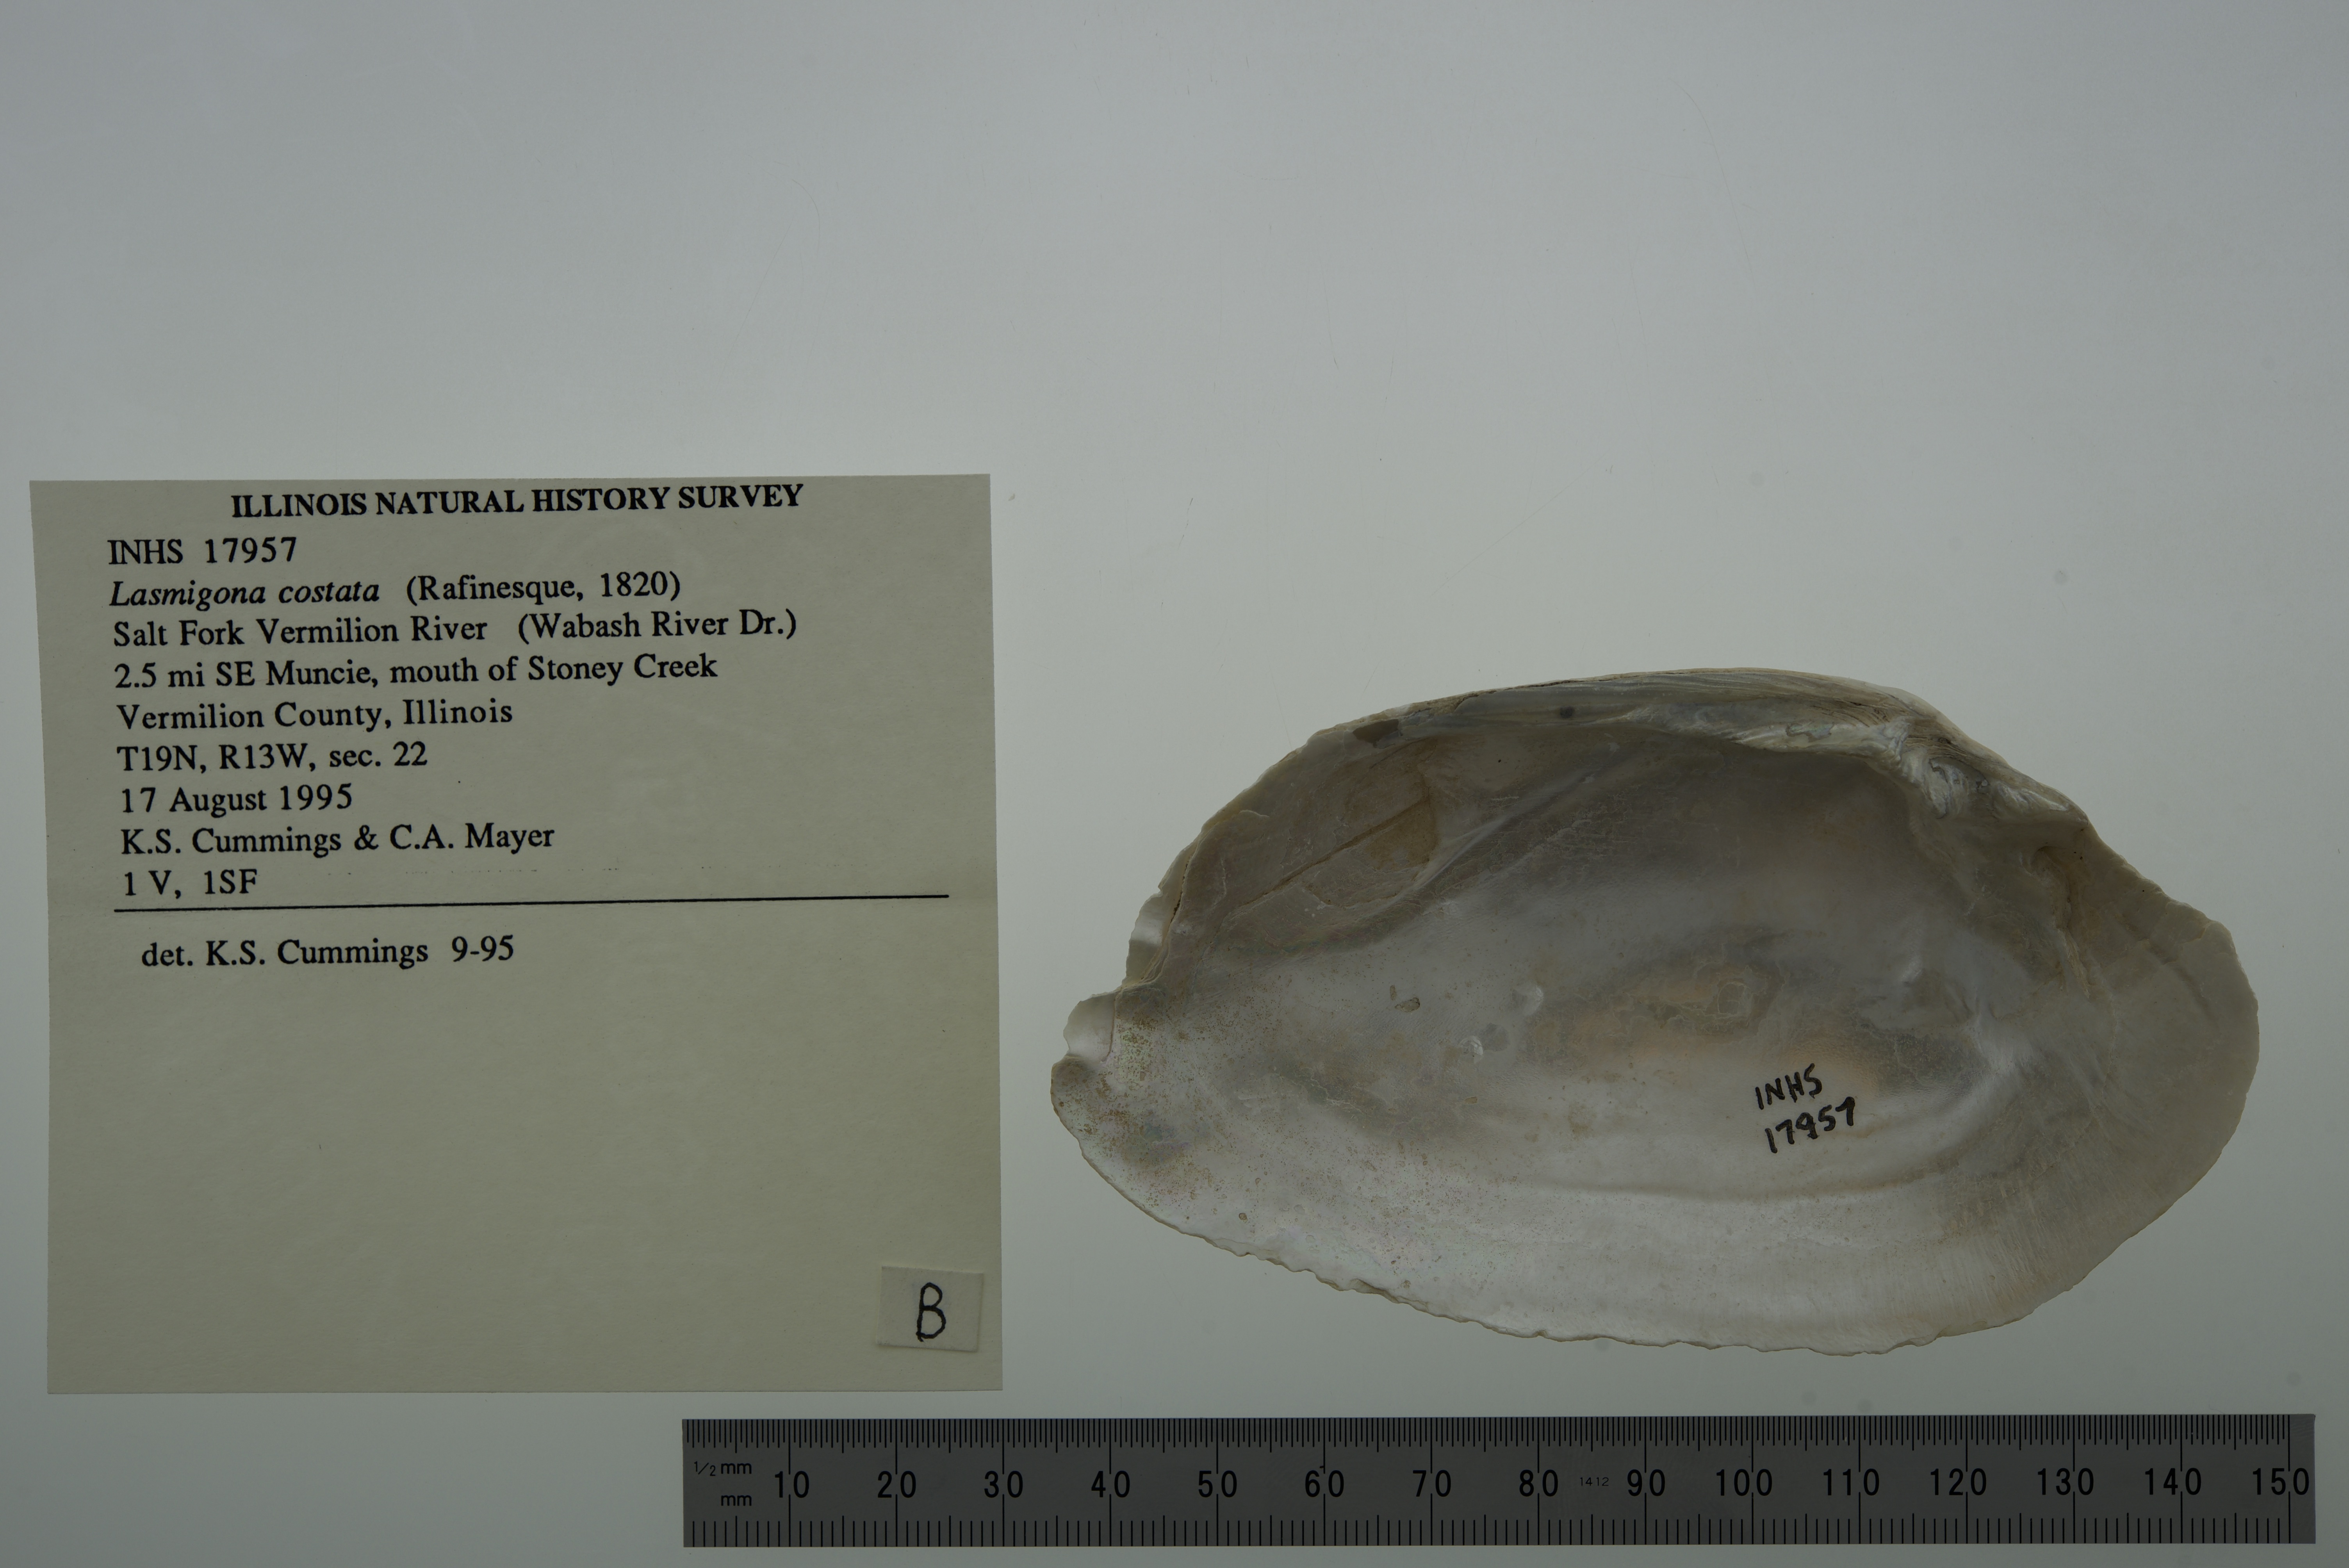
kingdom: Animalia
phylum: Mollusca
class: Bivalvia
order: Unionida
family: Unionidae
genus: Lasmigona
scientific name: Lasmigona costata
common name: Flutedshell
